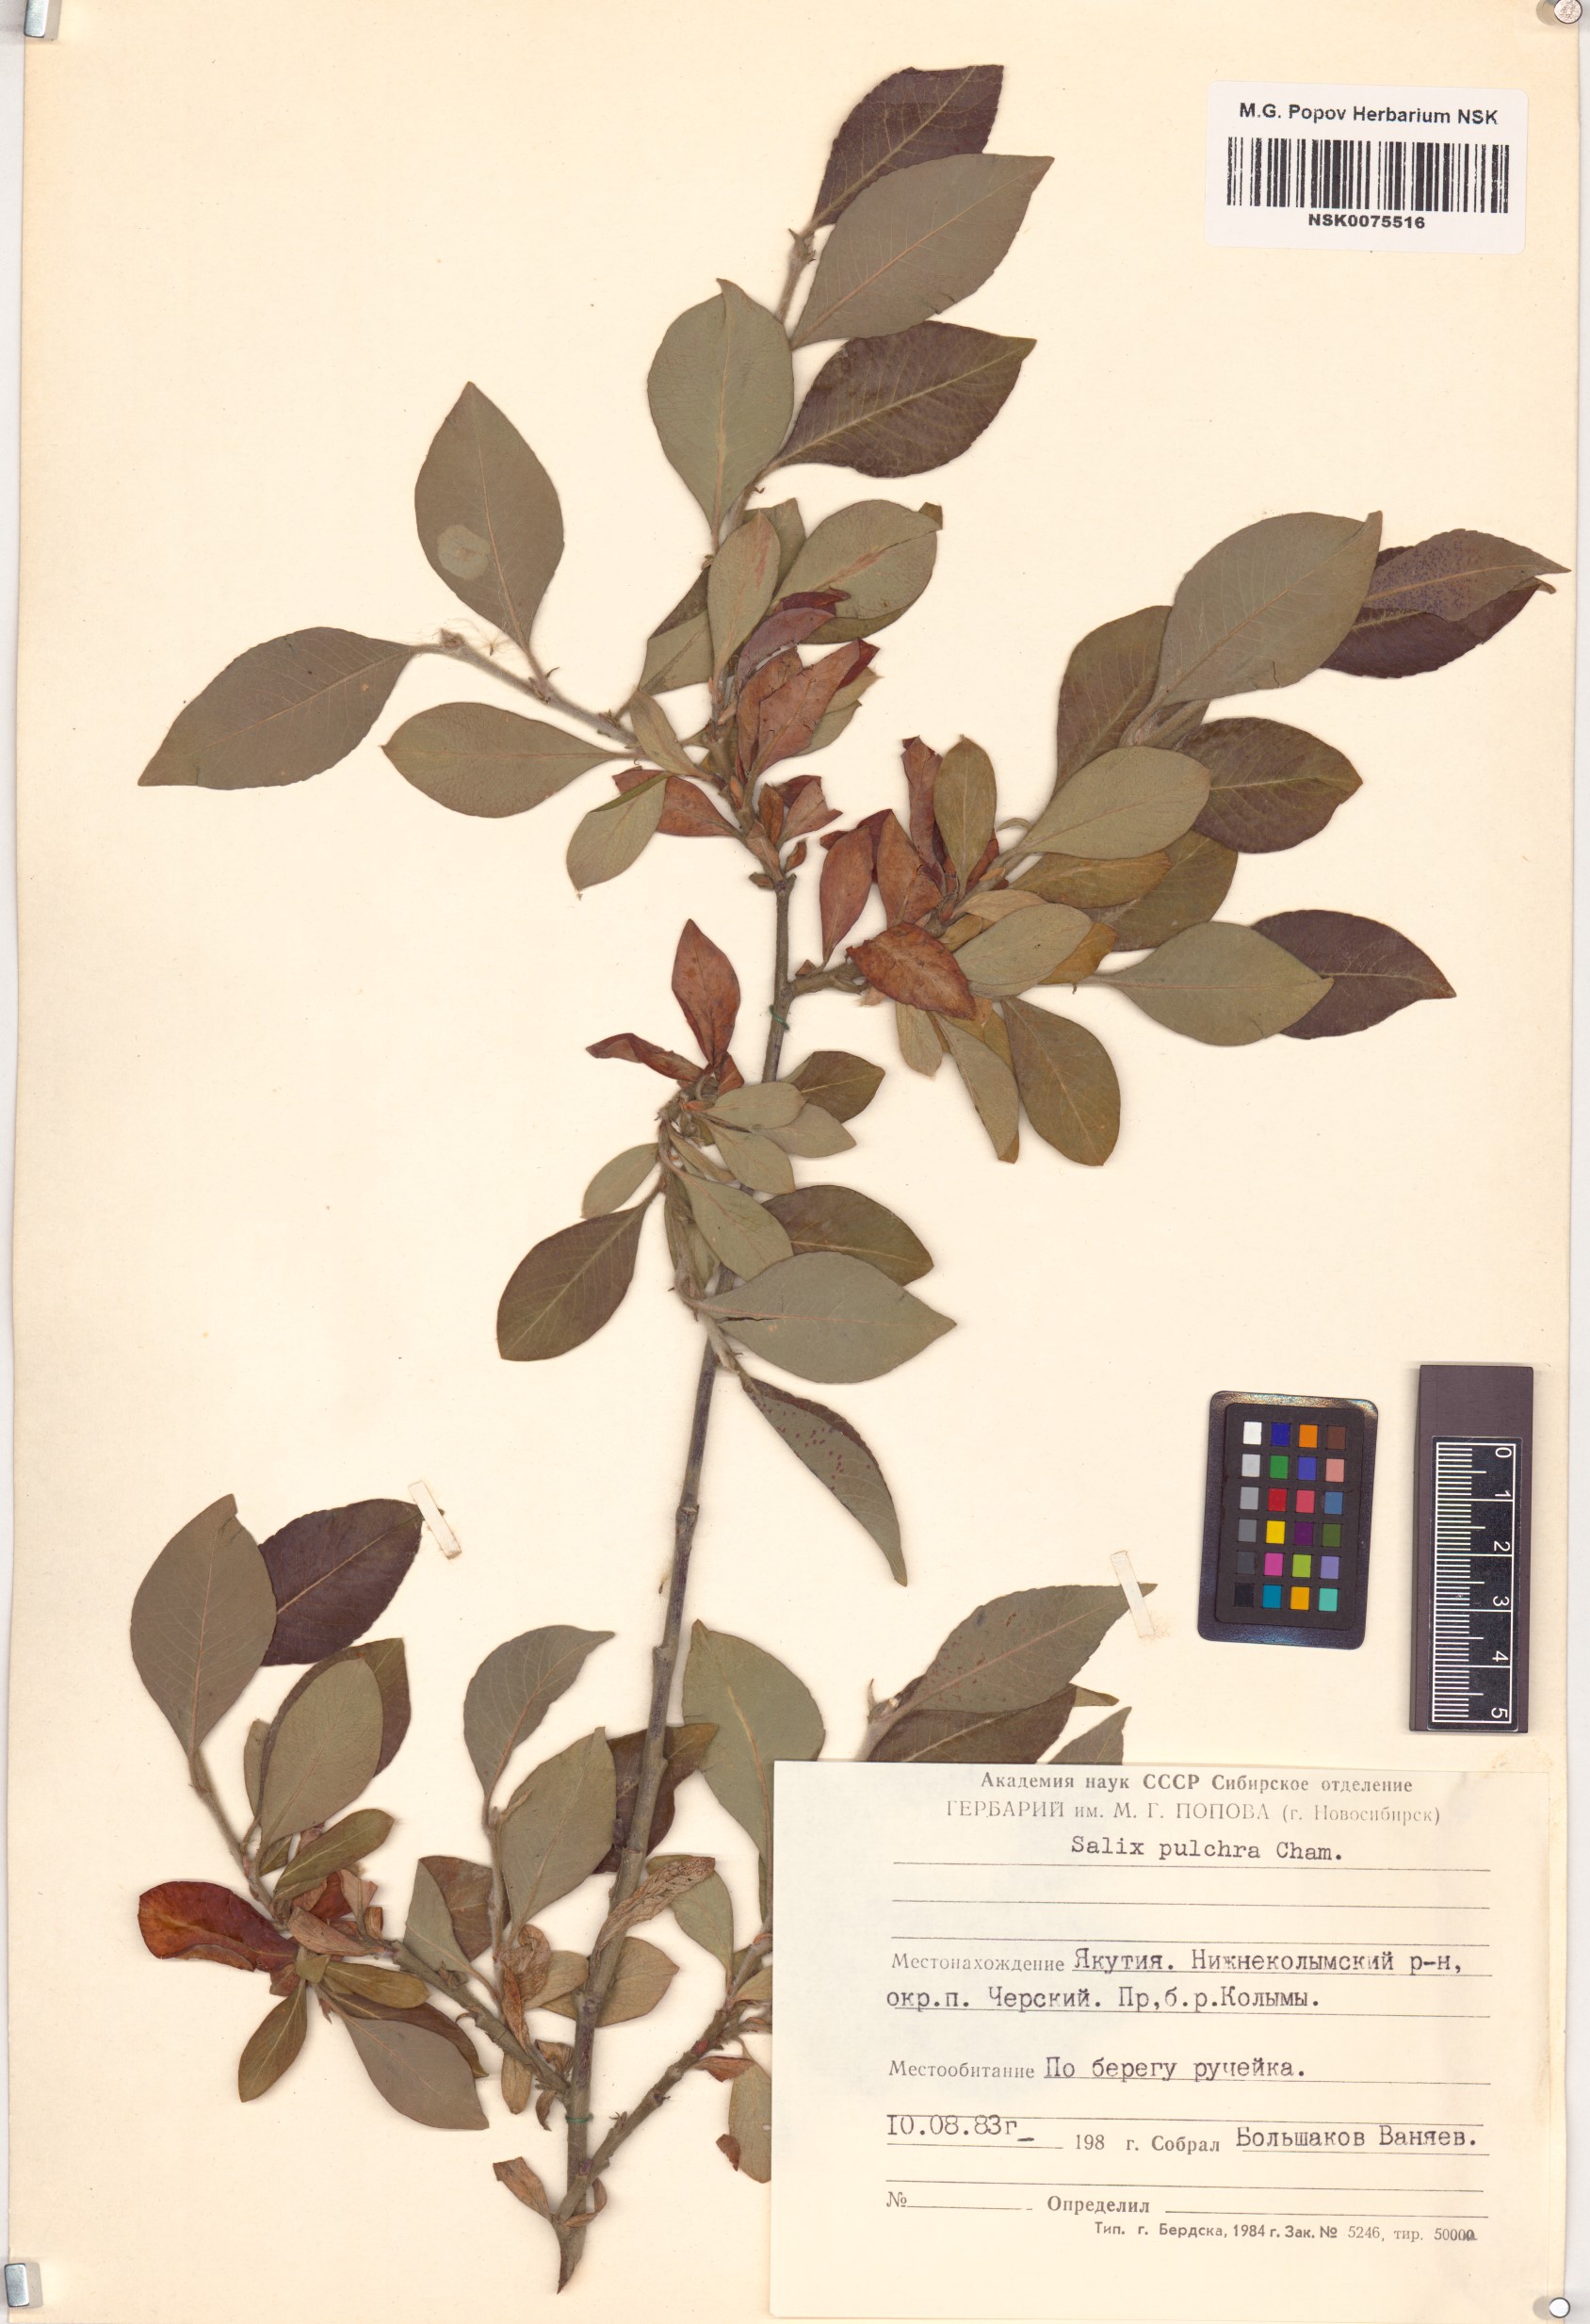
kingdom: Plantae
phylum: Tracheophyta
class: Magnoliopsida
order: Malpighiales
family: Salicaceae
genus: Salix
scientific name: Salix pulchra
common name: Diamond-leaved willow
